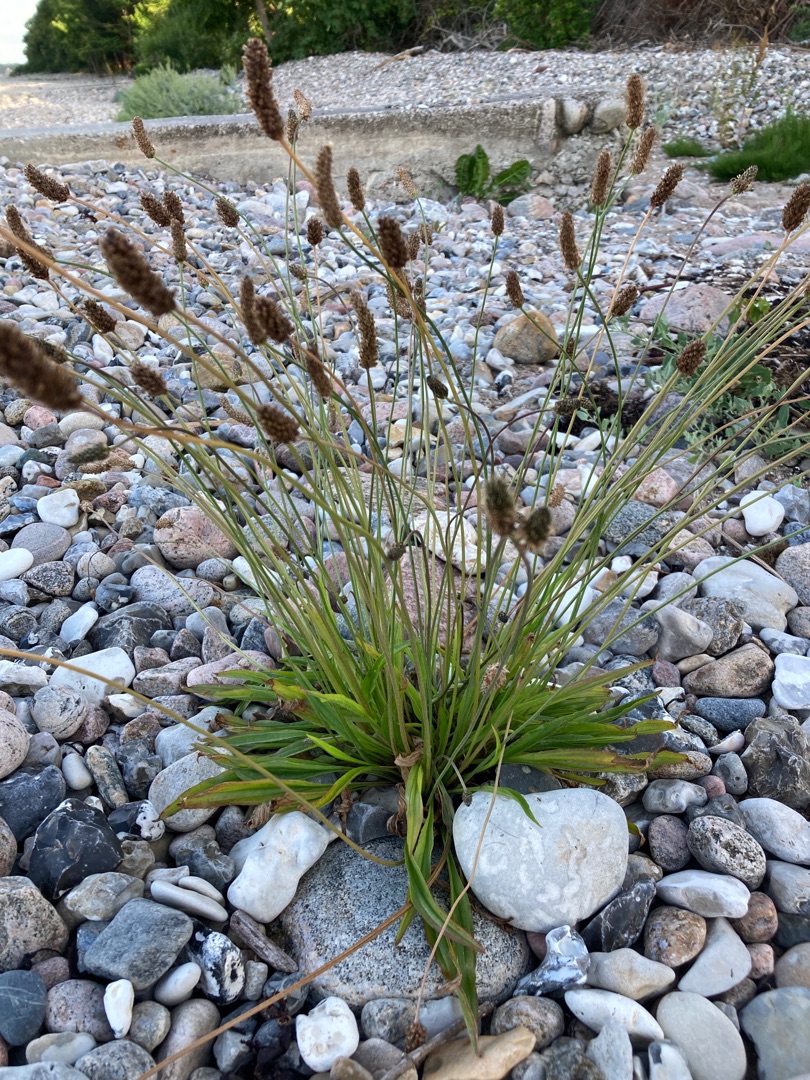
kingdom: Plantae
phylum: Tracheophyta
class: Magnoliopsida
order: Lamiales
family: Plantaginaceae
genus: Plantago
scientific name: Plantago lanceolata
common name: Lancet-vejbred
